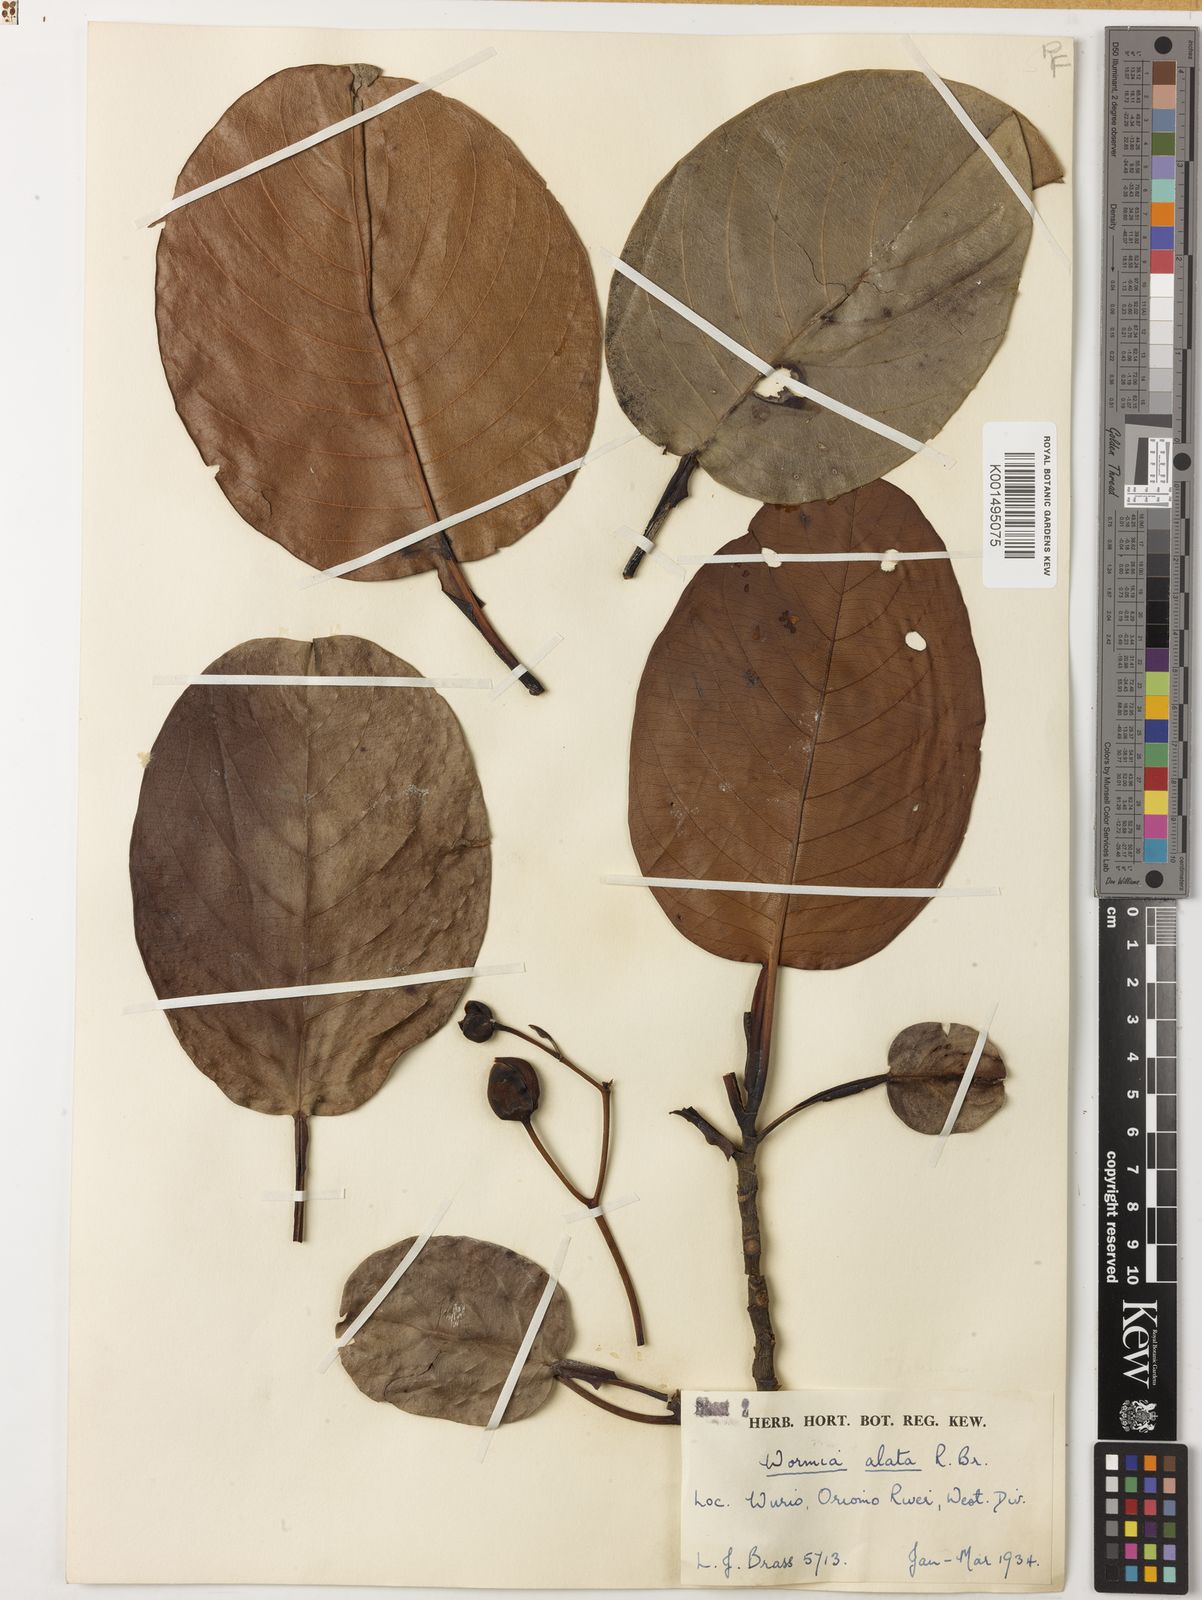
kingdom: Plantae
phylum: Tracheophyta
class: Magnoliopsida
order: Dilleniales
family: Dilleniaceae
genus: Dillenia
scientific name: Dillenia alata
